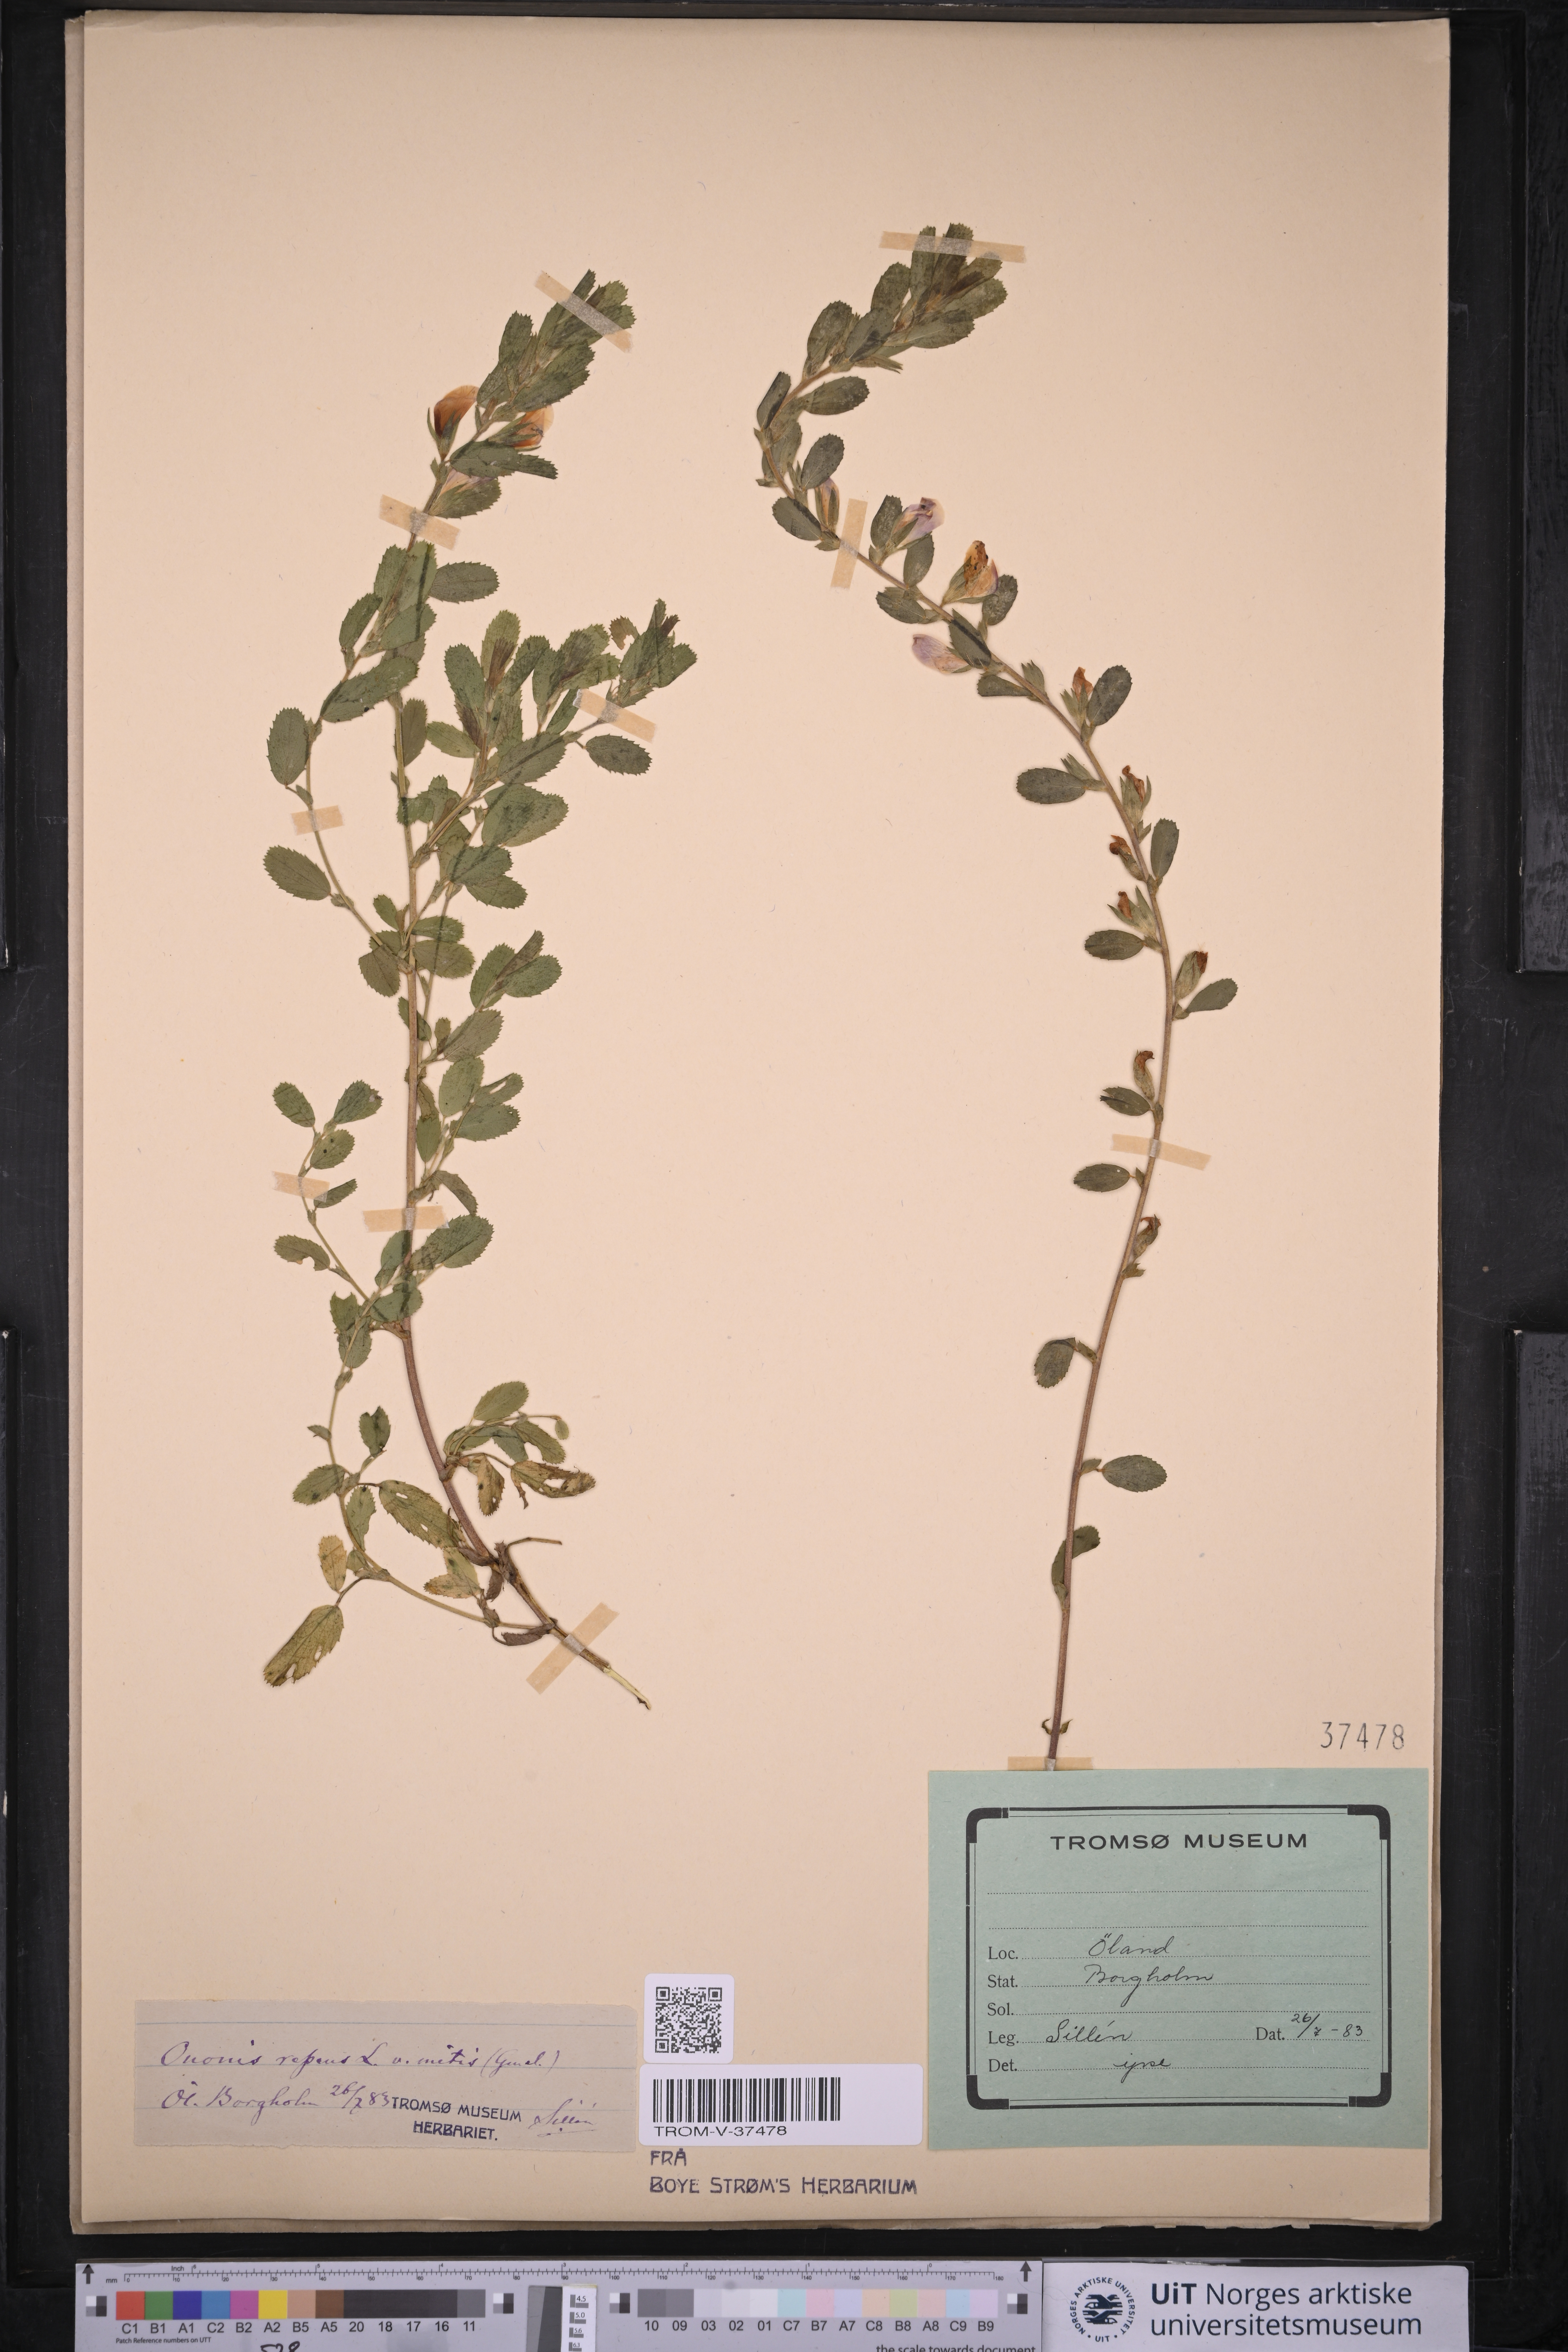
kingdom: Plantae
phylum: Tracheophyta
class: Magnoliopsida
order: Fabales
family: Fabaceae
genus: Ononis
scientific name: Ononis spinosa
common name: Spiny restharrow
